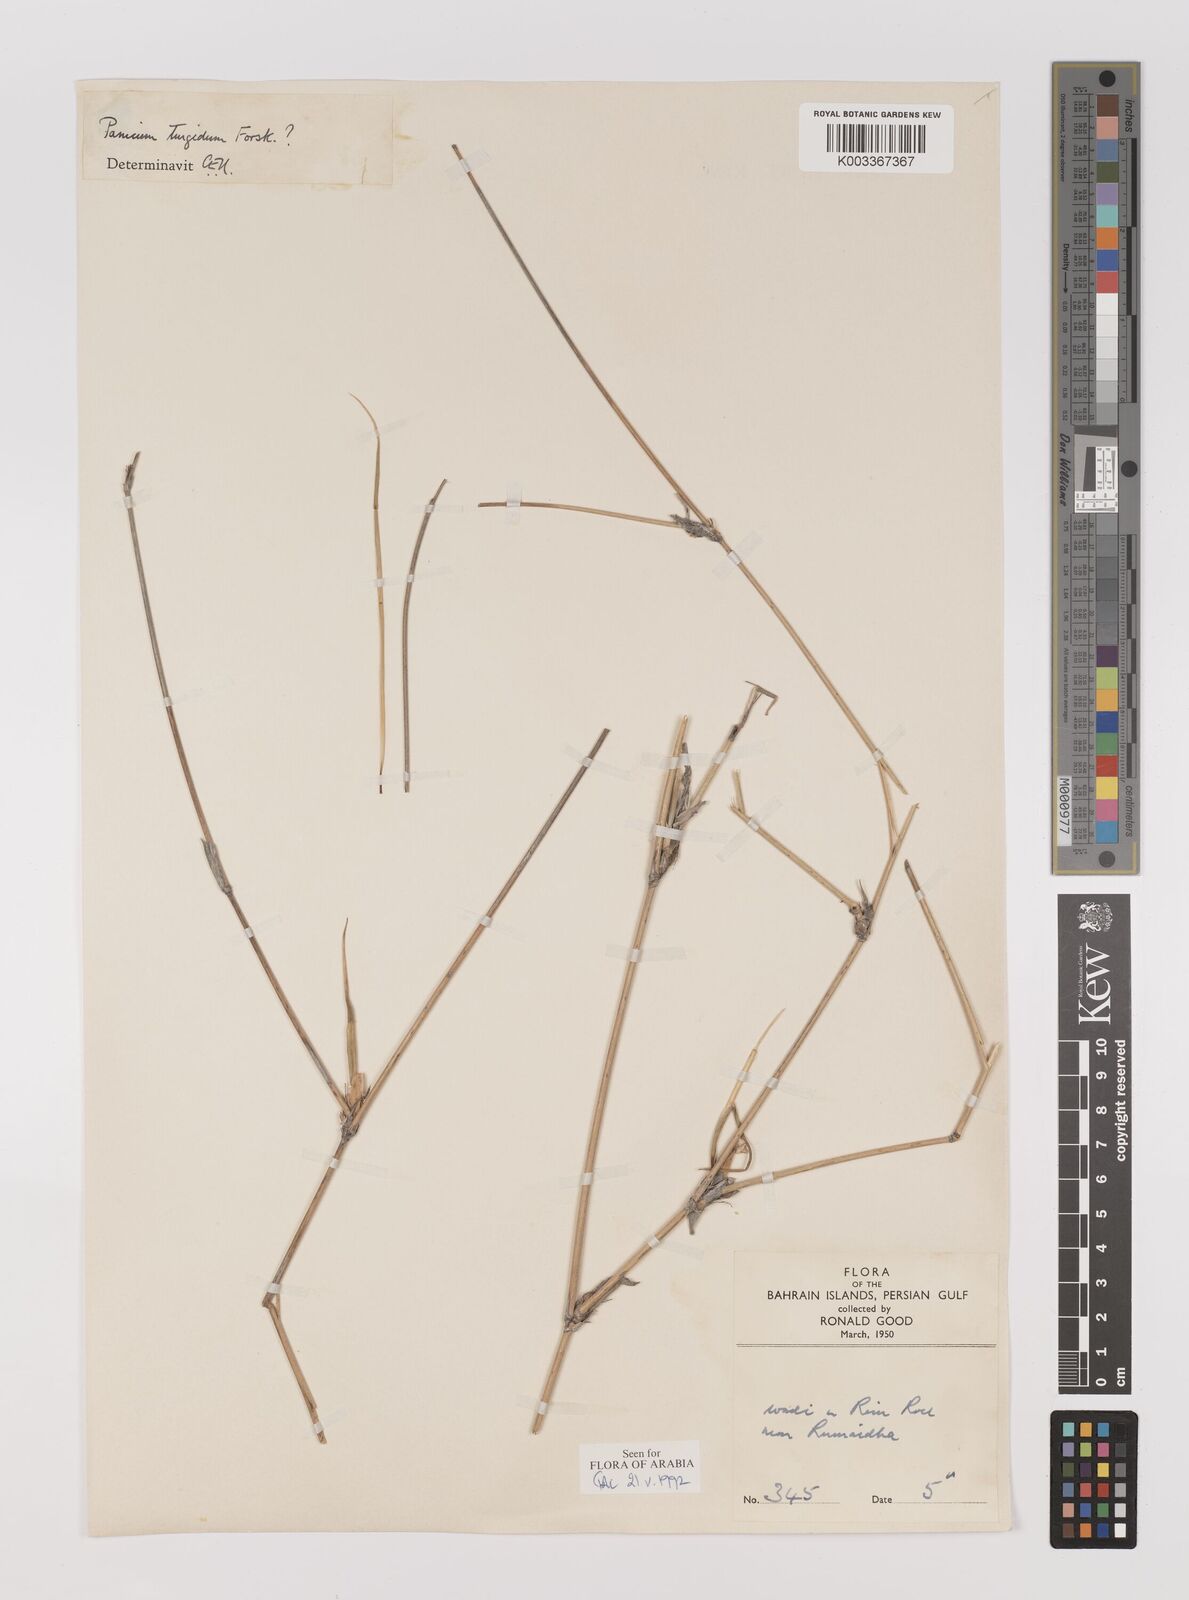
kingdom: Plantae
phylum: Tracheophyta
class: Liliopsida
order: Poales
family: Poaceae
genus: Panicum
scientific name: Panicum turgidum
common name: Desert grass
